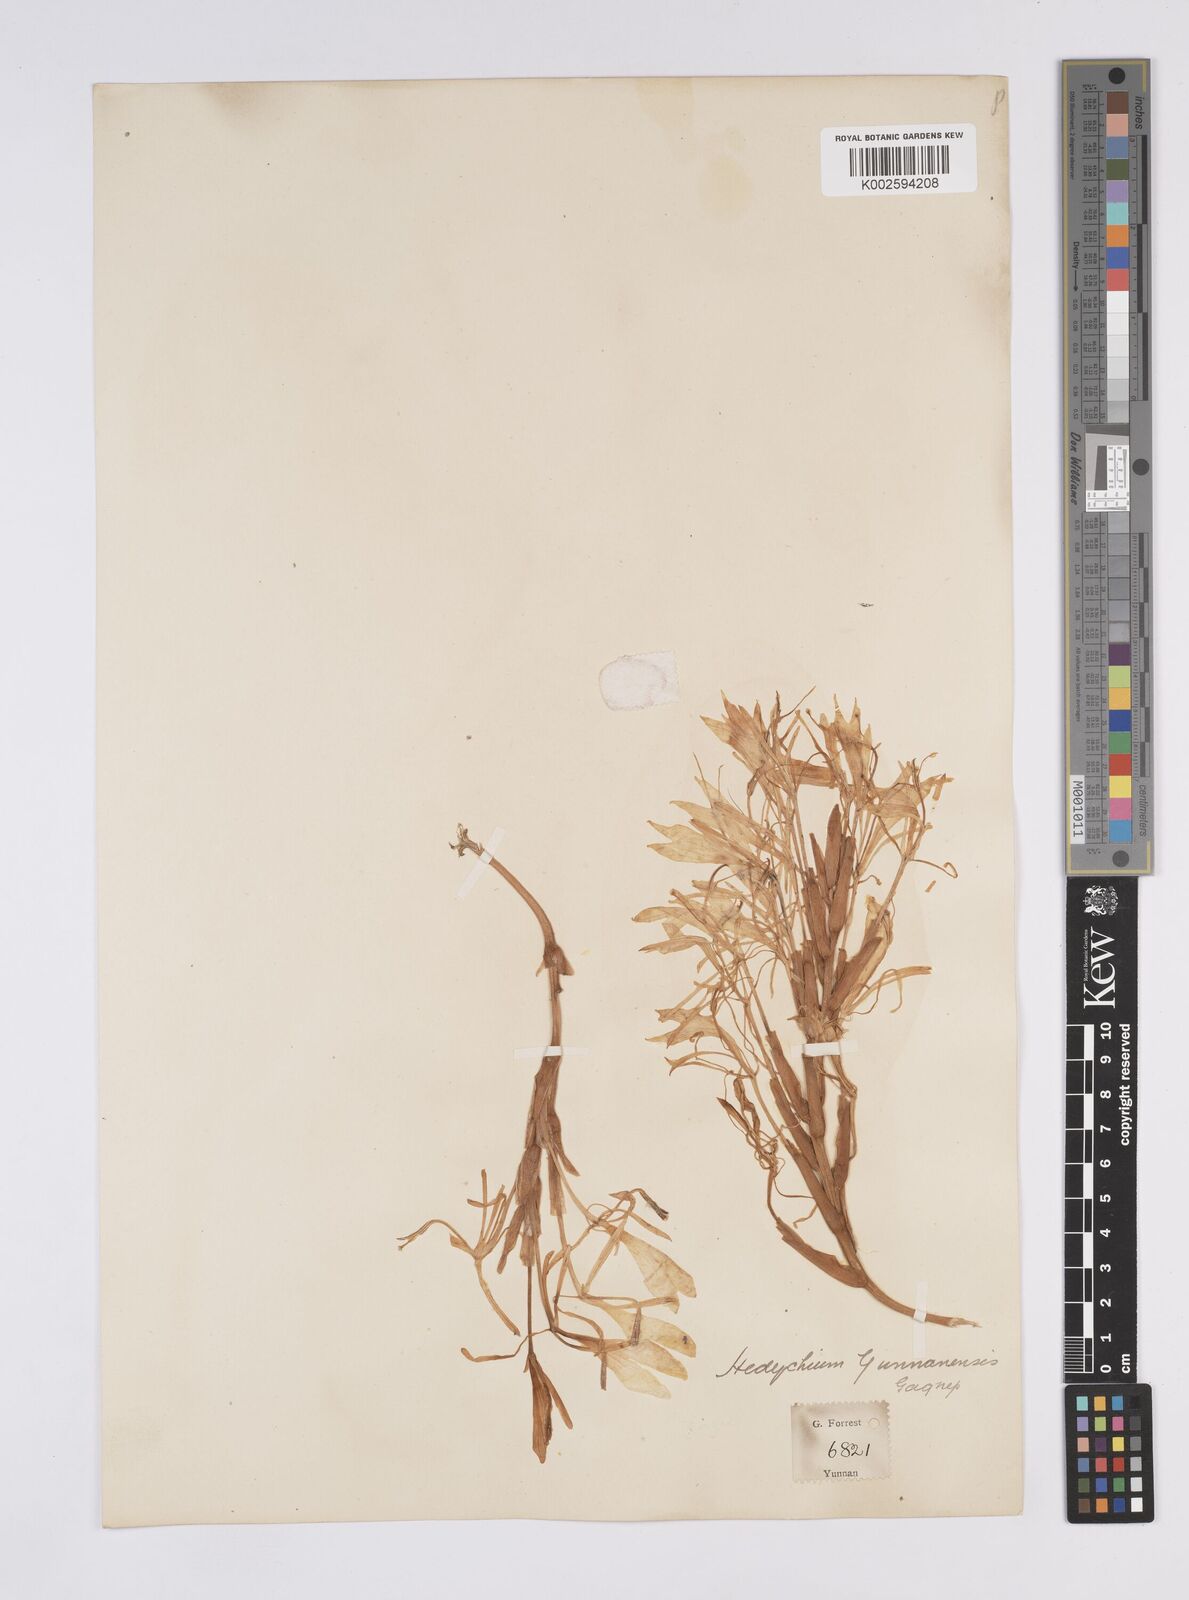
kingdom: Plantae
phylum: Tracheophyta
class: Liliopsida
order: Zingiberales
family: Zingiberaceae
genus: Hedychium
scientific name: Hedychium yunnanense
